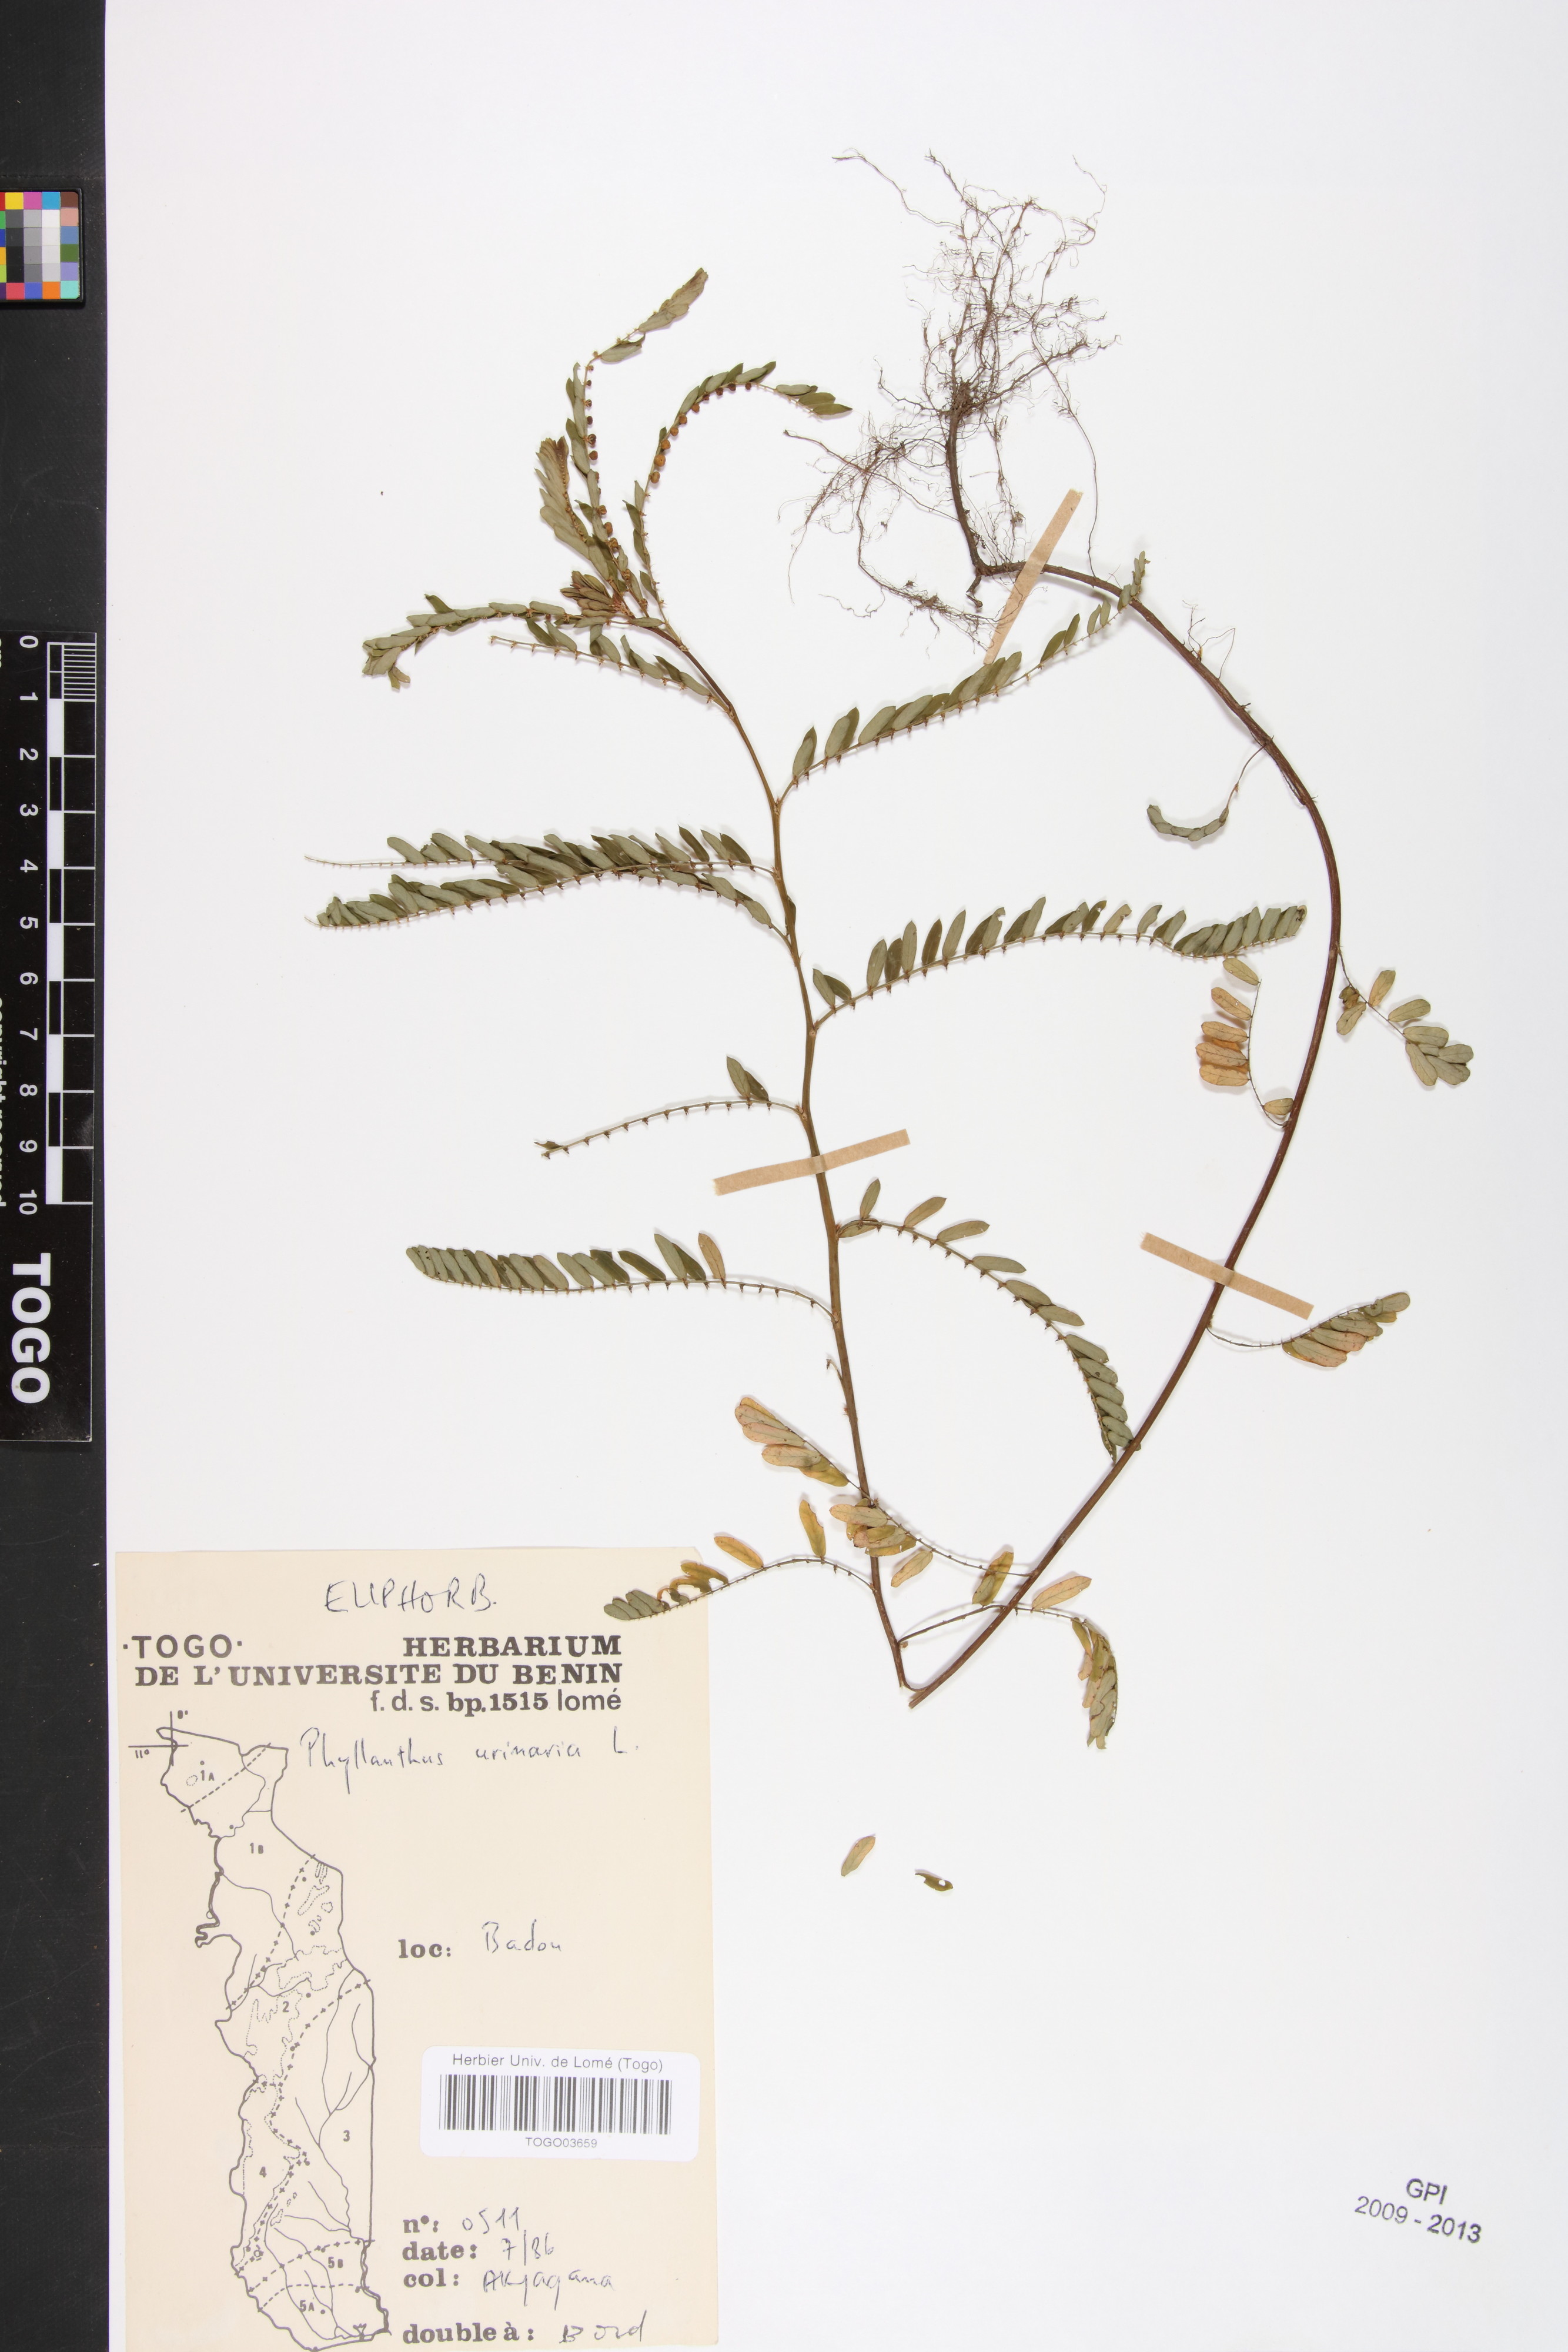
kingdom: Plantae
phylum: Tracheophyta
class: Magnoliopsida
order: Malpighiales
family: Phyllanthaceae
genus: Phyllanthus
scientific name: Phyllanthus urinaria
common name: Chamber bitter
